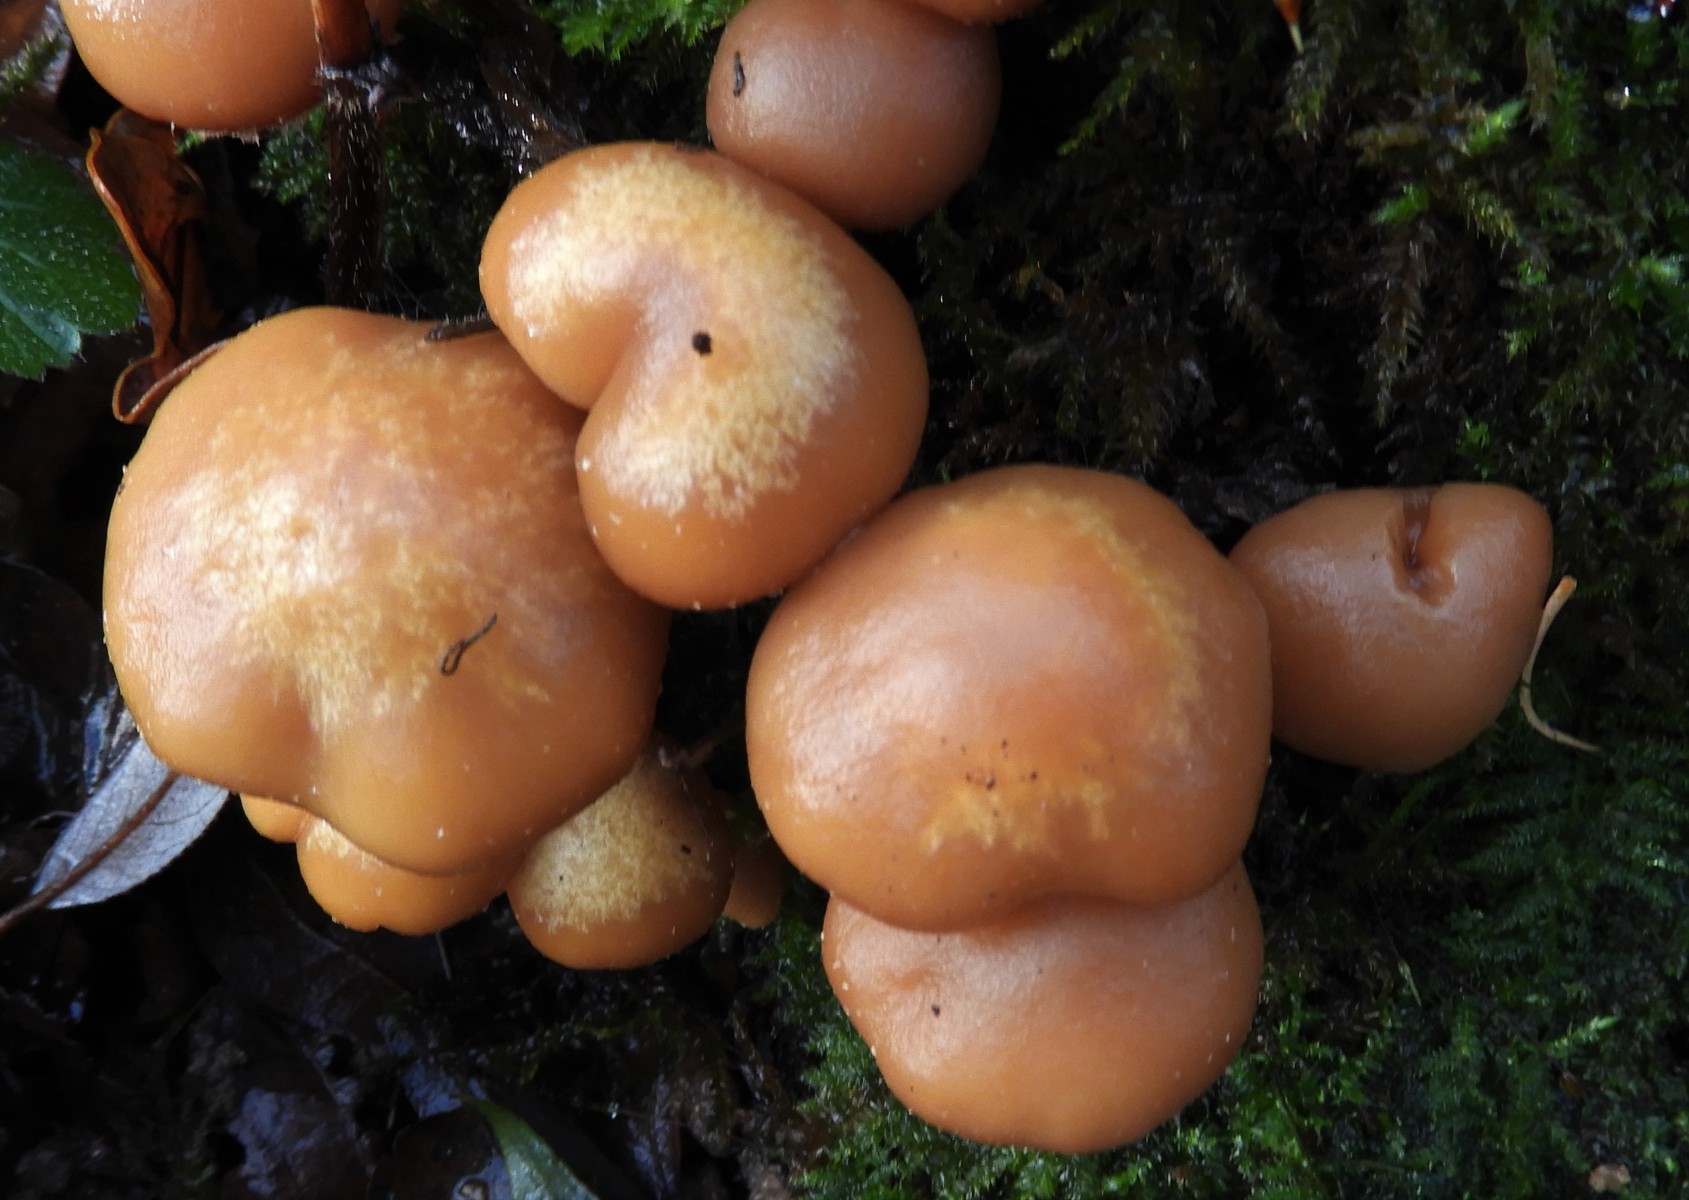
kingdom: Fungi
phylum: Basidiomycota
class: Agaricomycetes
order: Agaricales
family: Strophariaceae
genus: Kuehneromyces
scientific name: Kuehneromyces mutabilis
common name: foranderlig skælhat
